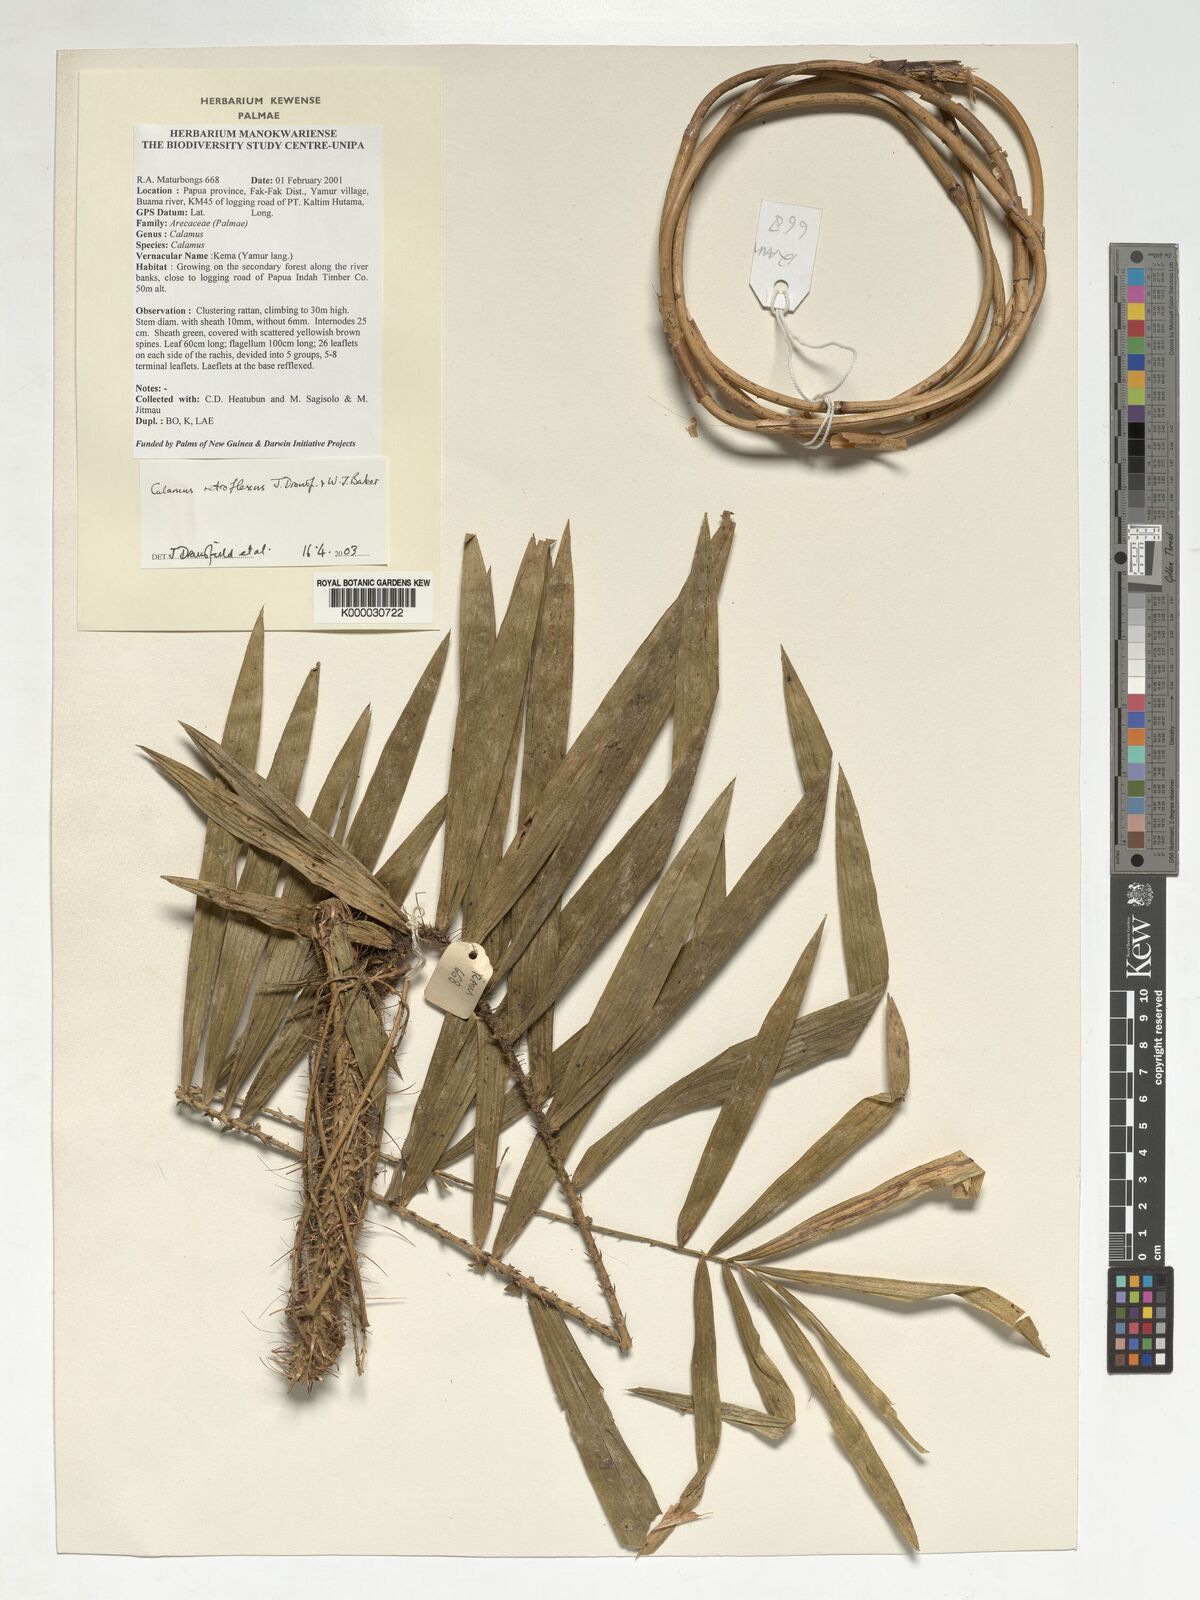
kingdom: Plantae
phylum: Tracheophyta
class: Liliopsida
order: Arecales
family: Arecaceae
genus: Calamus
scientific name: Calamus retroflexus
